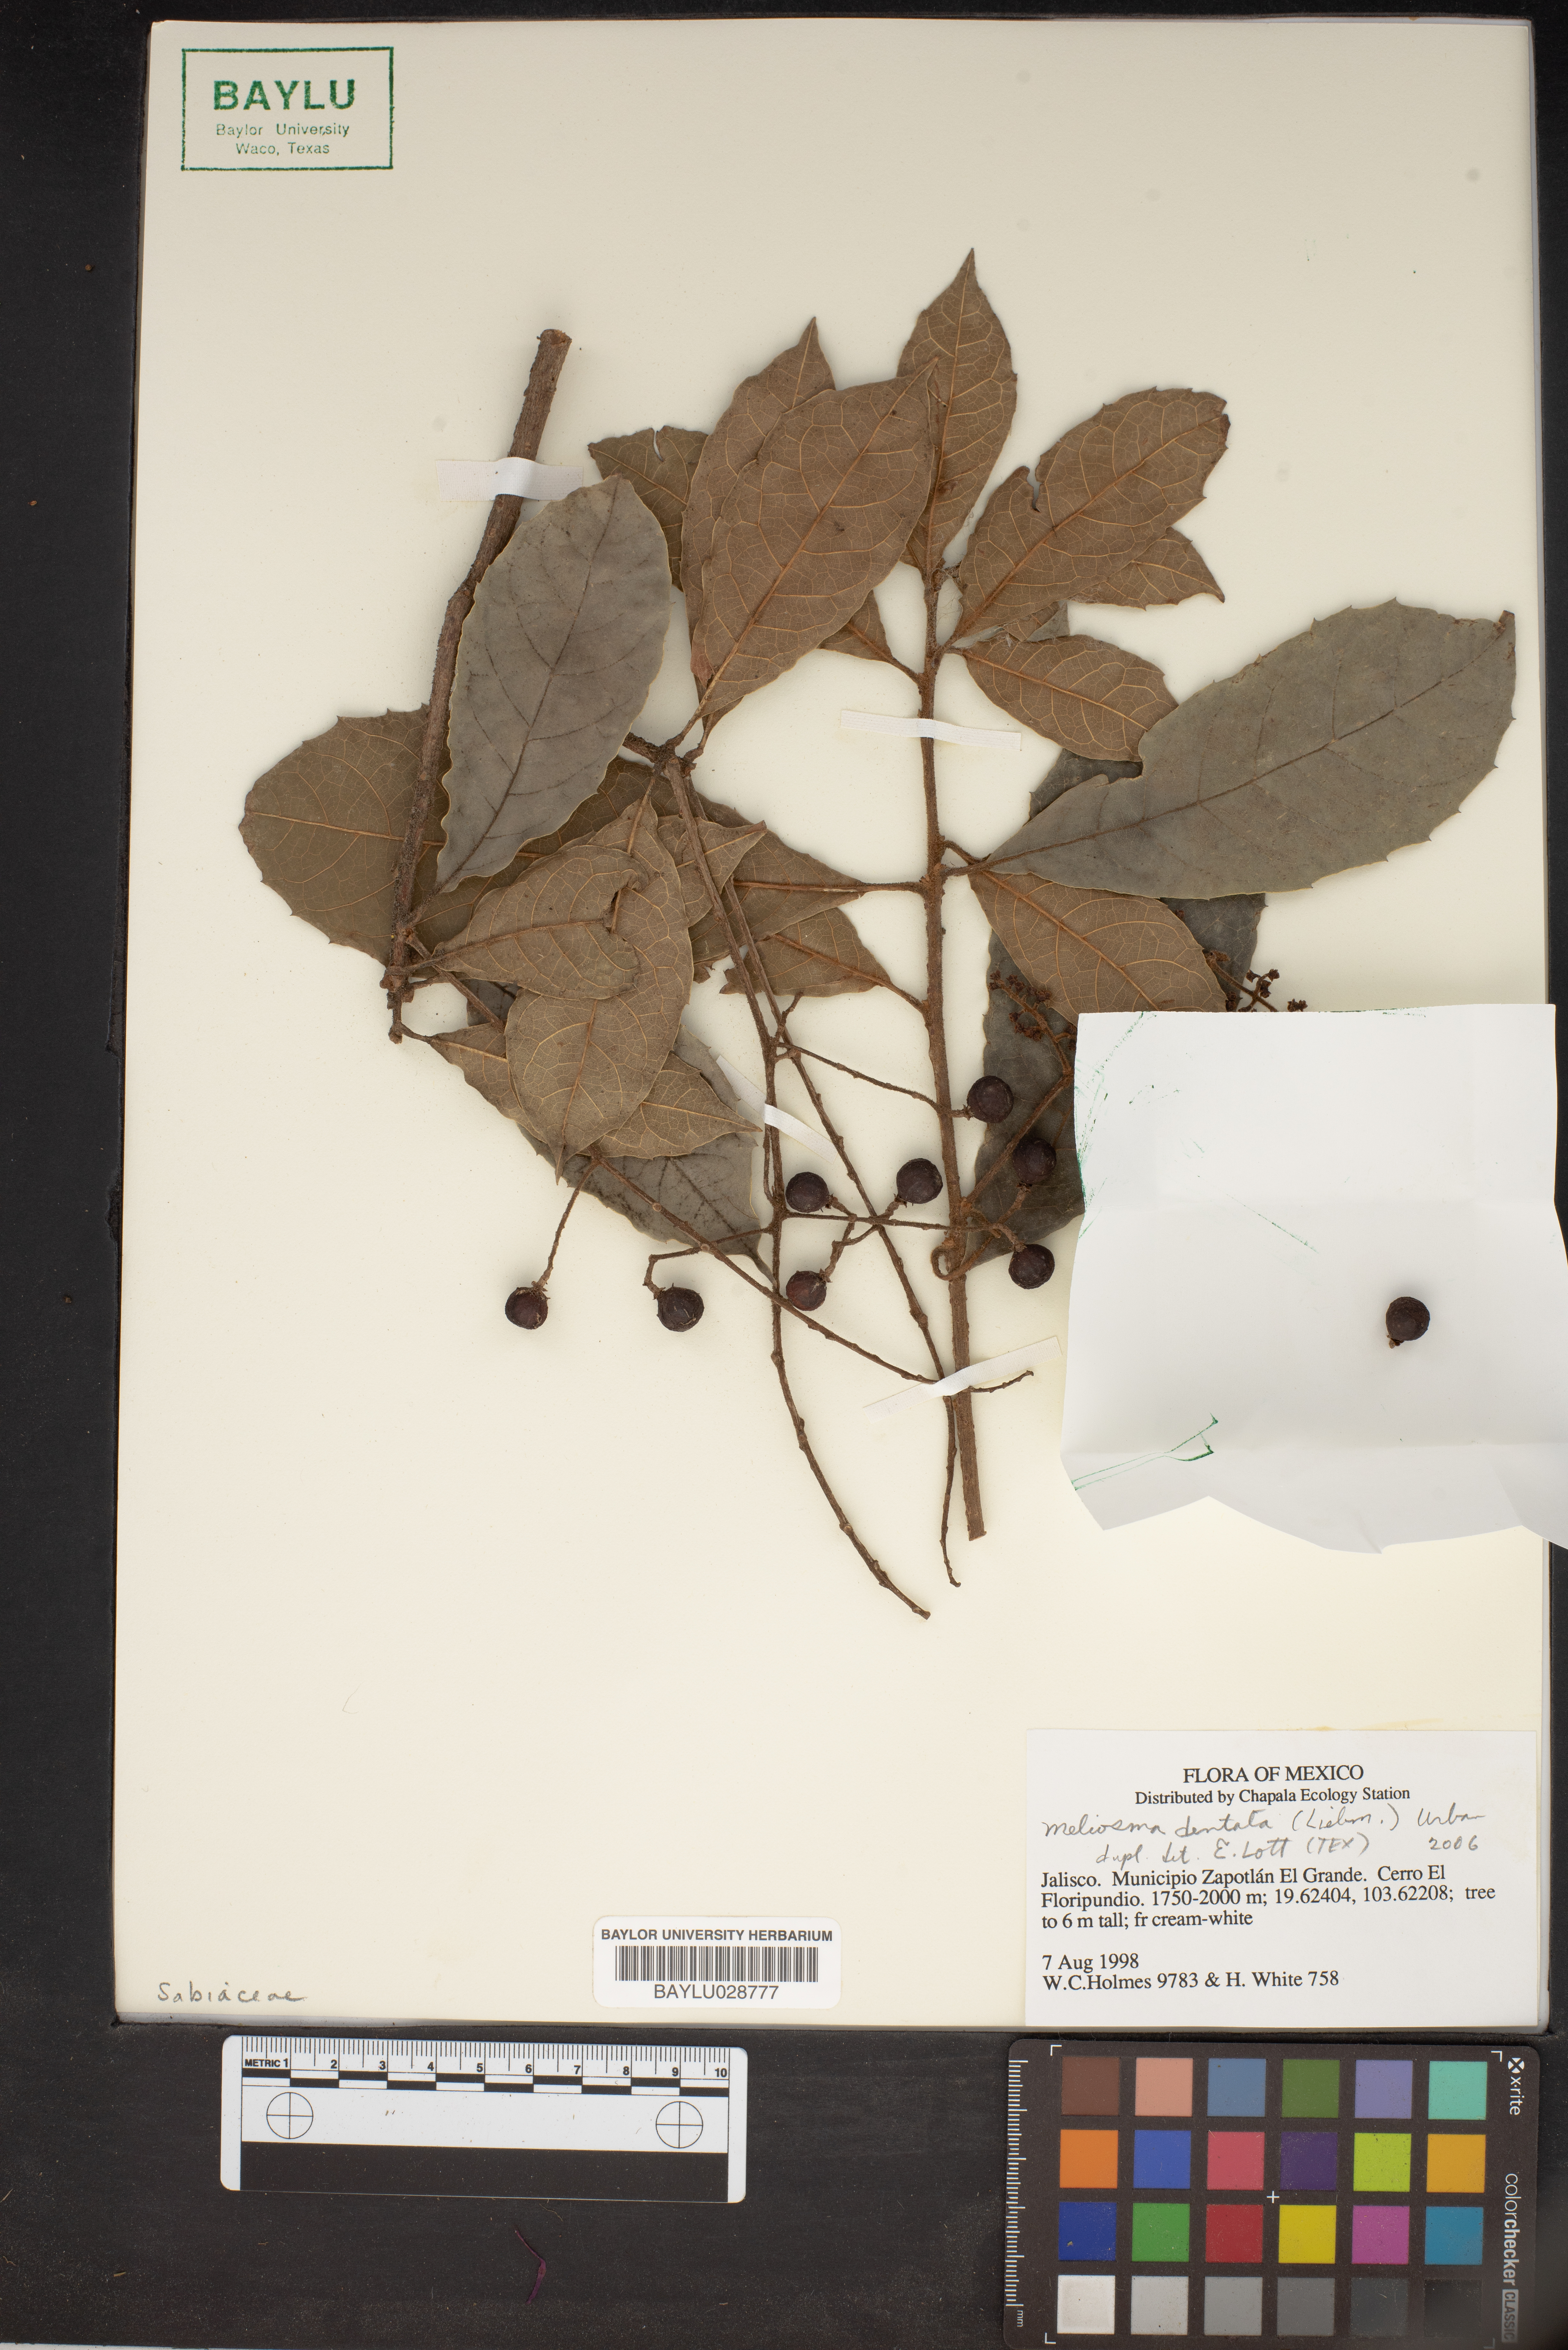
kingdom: Plantae
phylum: Tracheophyta
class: Magnoliopsida
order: Proteales
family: Sabiaceae
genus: Meliosma
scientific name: Meliosma dentata
